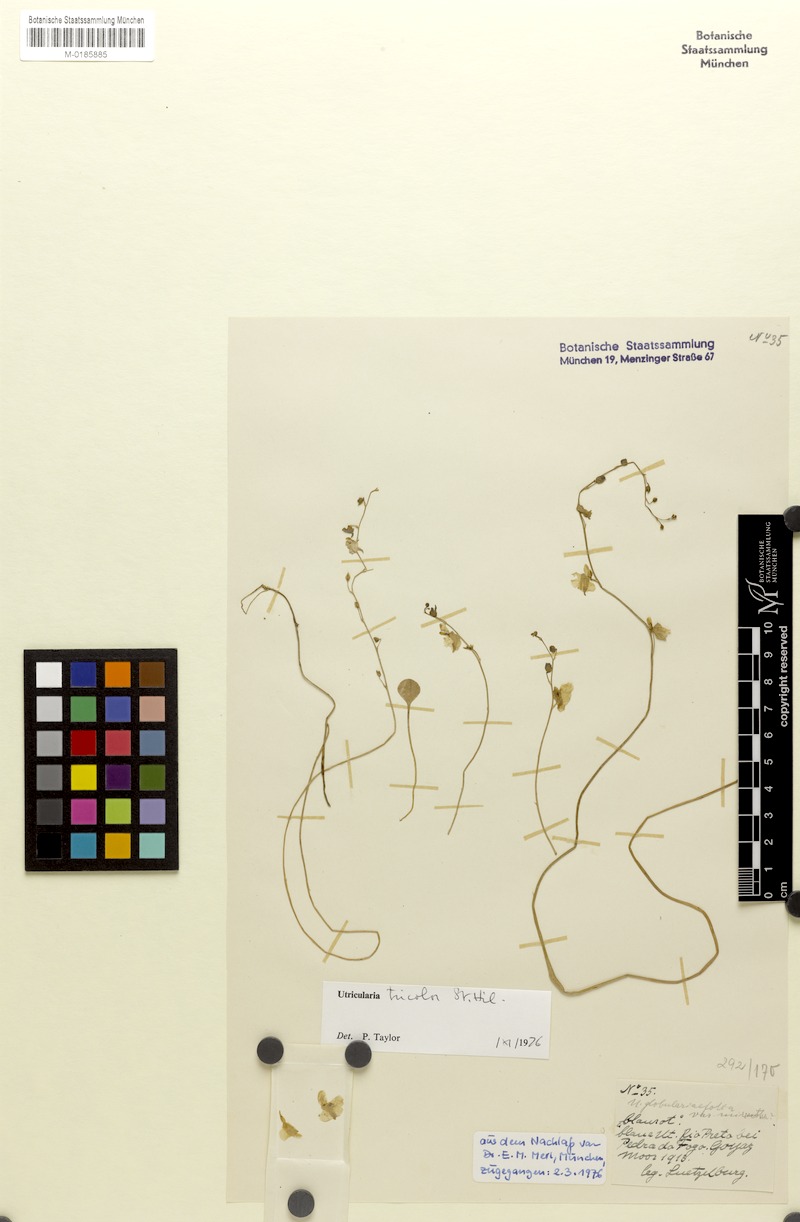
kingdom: Plantae
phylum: Tracheophyta
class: Magnoliopsida
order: Lamiales
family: Lentibulariaceae
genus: Utricularia
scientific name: Utricularia tricolor
